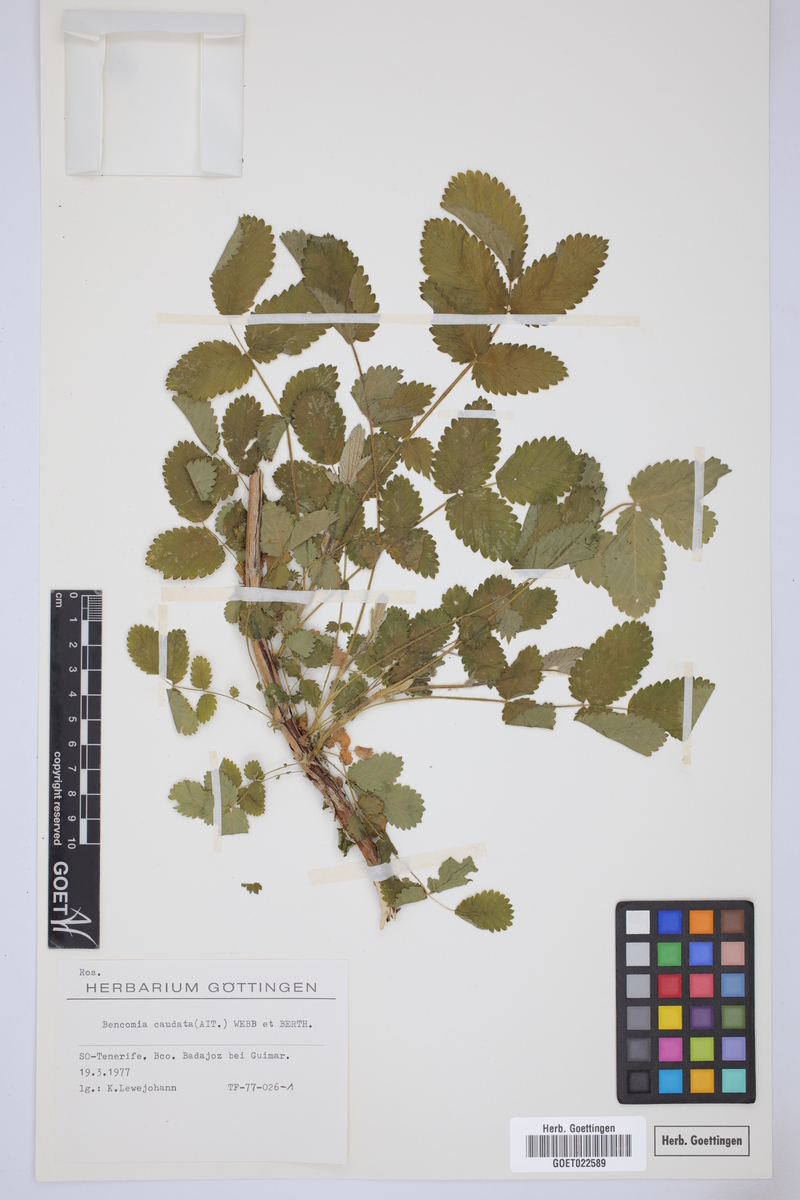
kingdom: Plantae
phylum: Tracheophyta
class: Magnoliopsida
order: Rosales
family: Rosaceae
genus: Bencomia
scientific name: Bencomia caudata
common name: Bencomia
